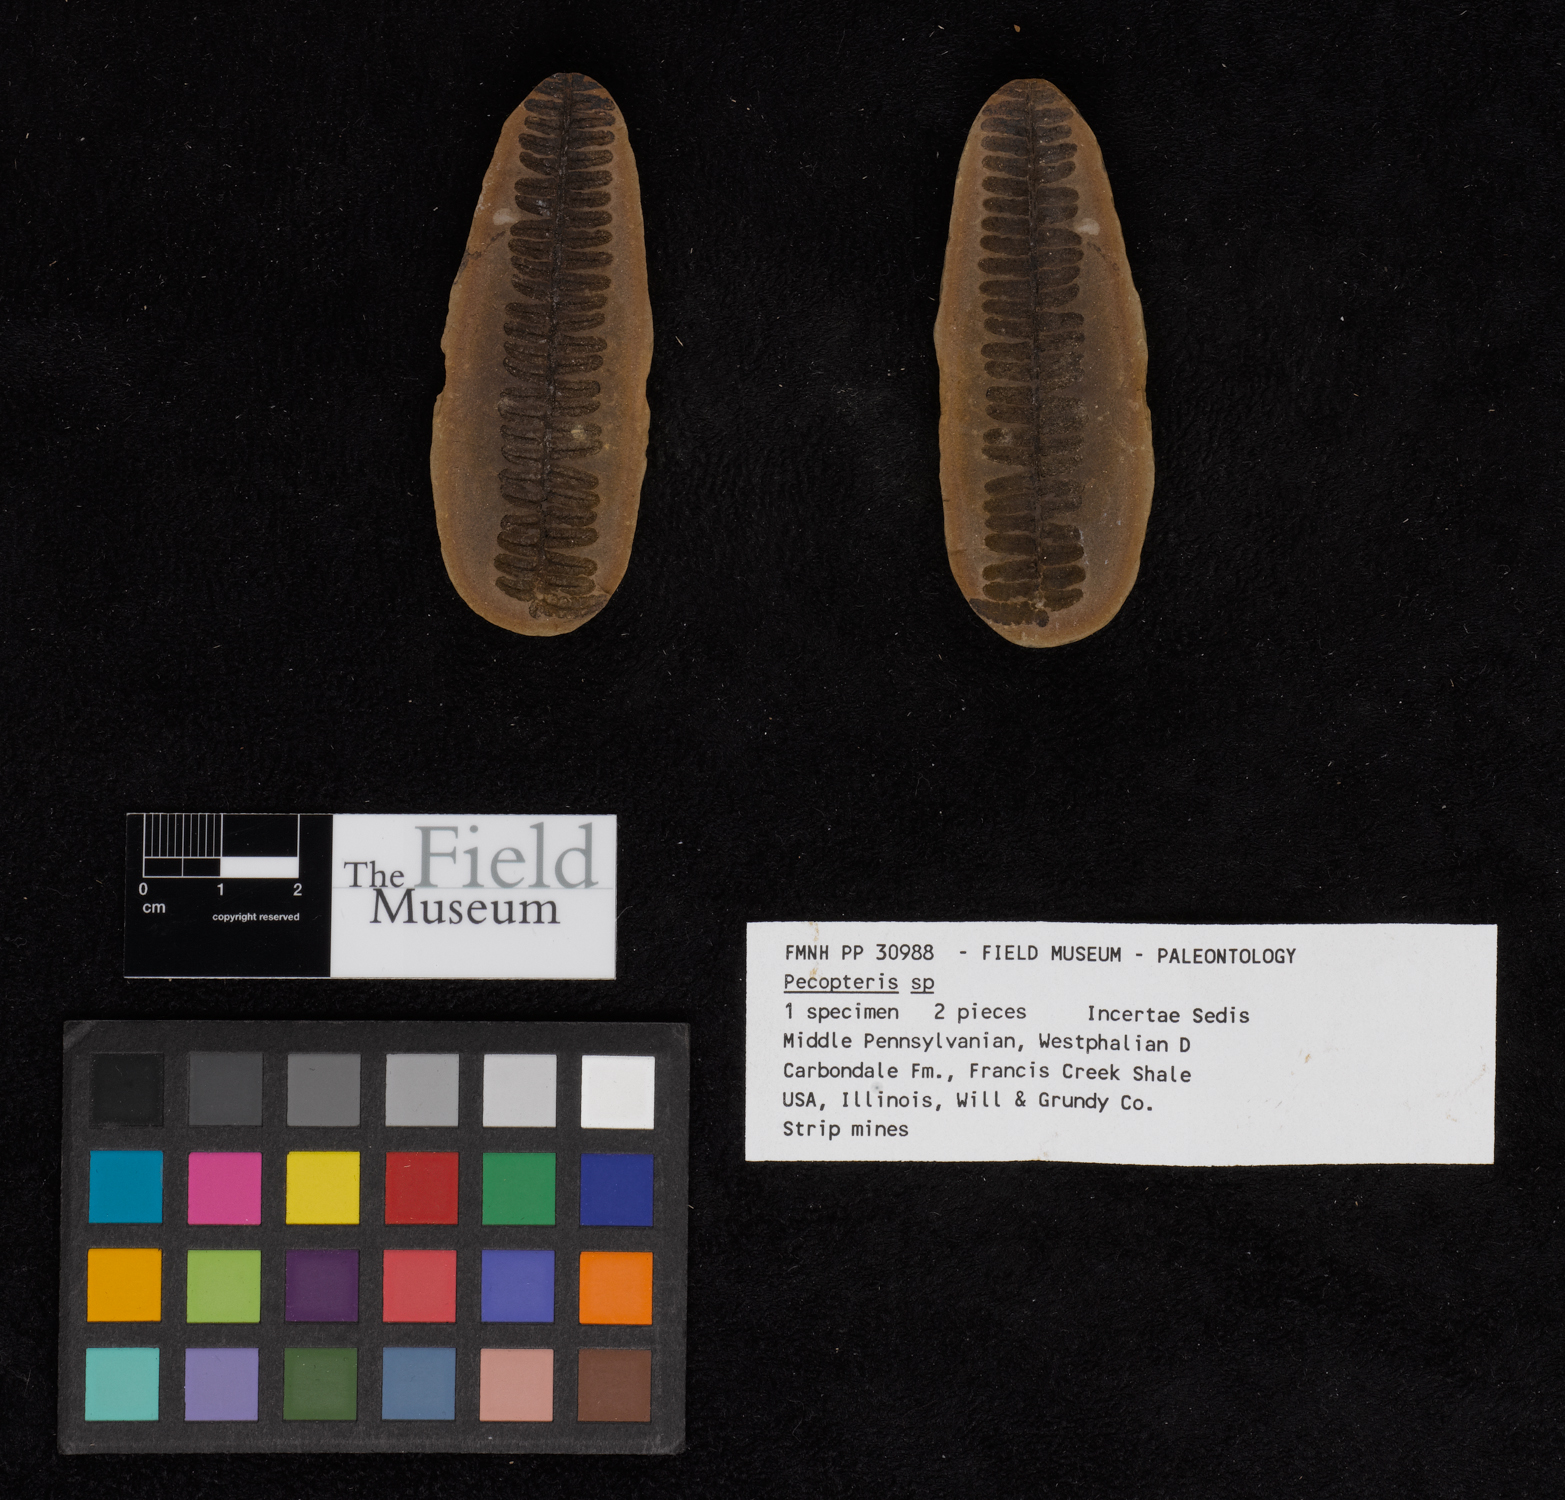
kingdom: Plantae
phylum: Tracheophyta
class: Polypodiopsida
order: Marattiales
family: Asterothecaceae
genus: Pecopteris
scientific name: Pecopteris
